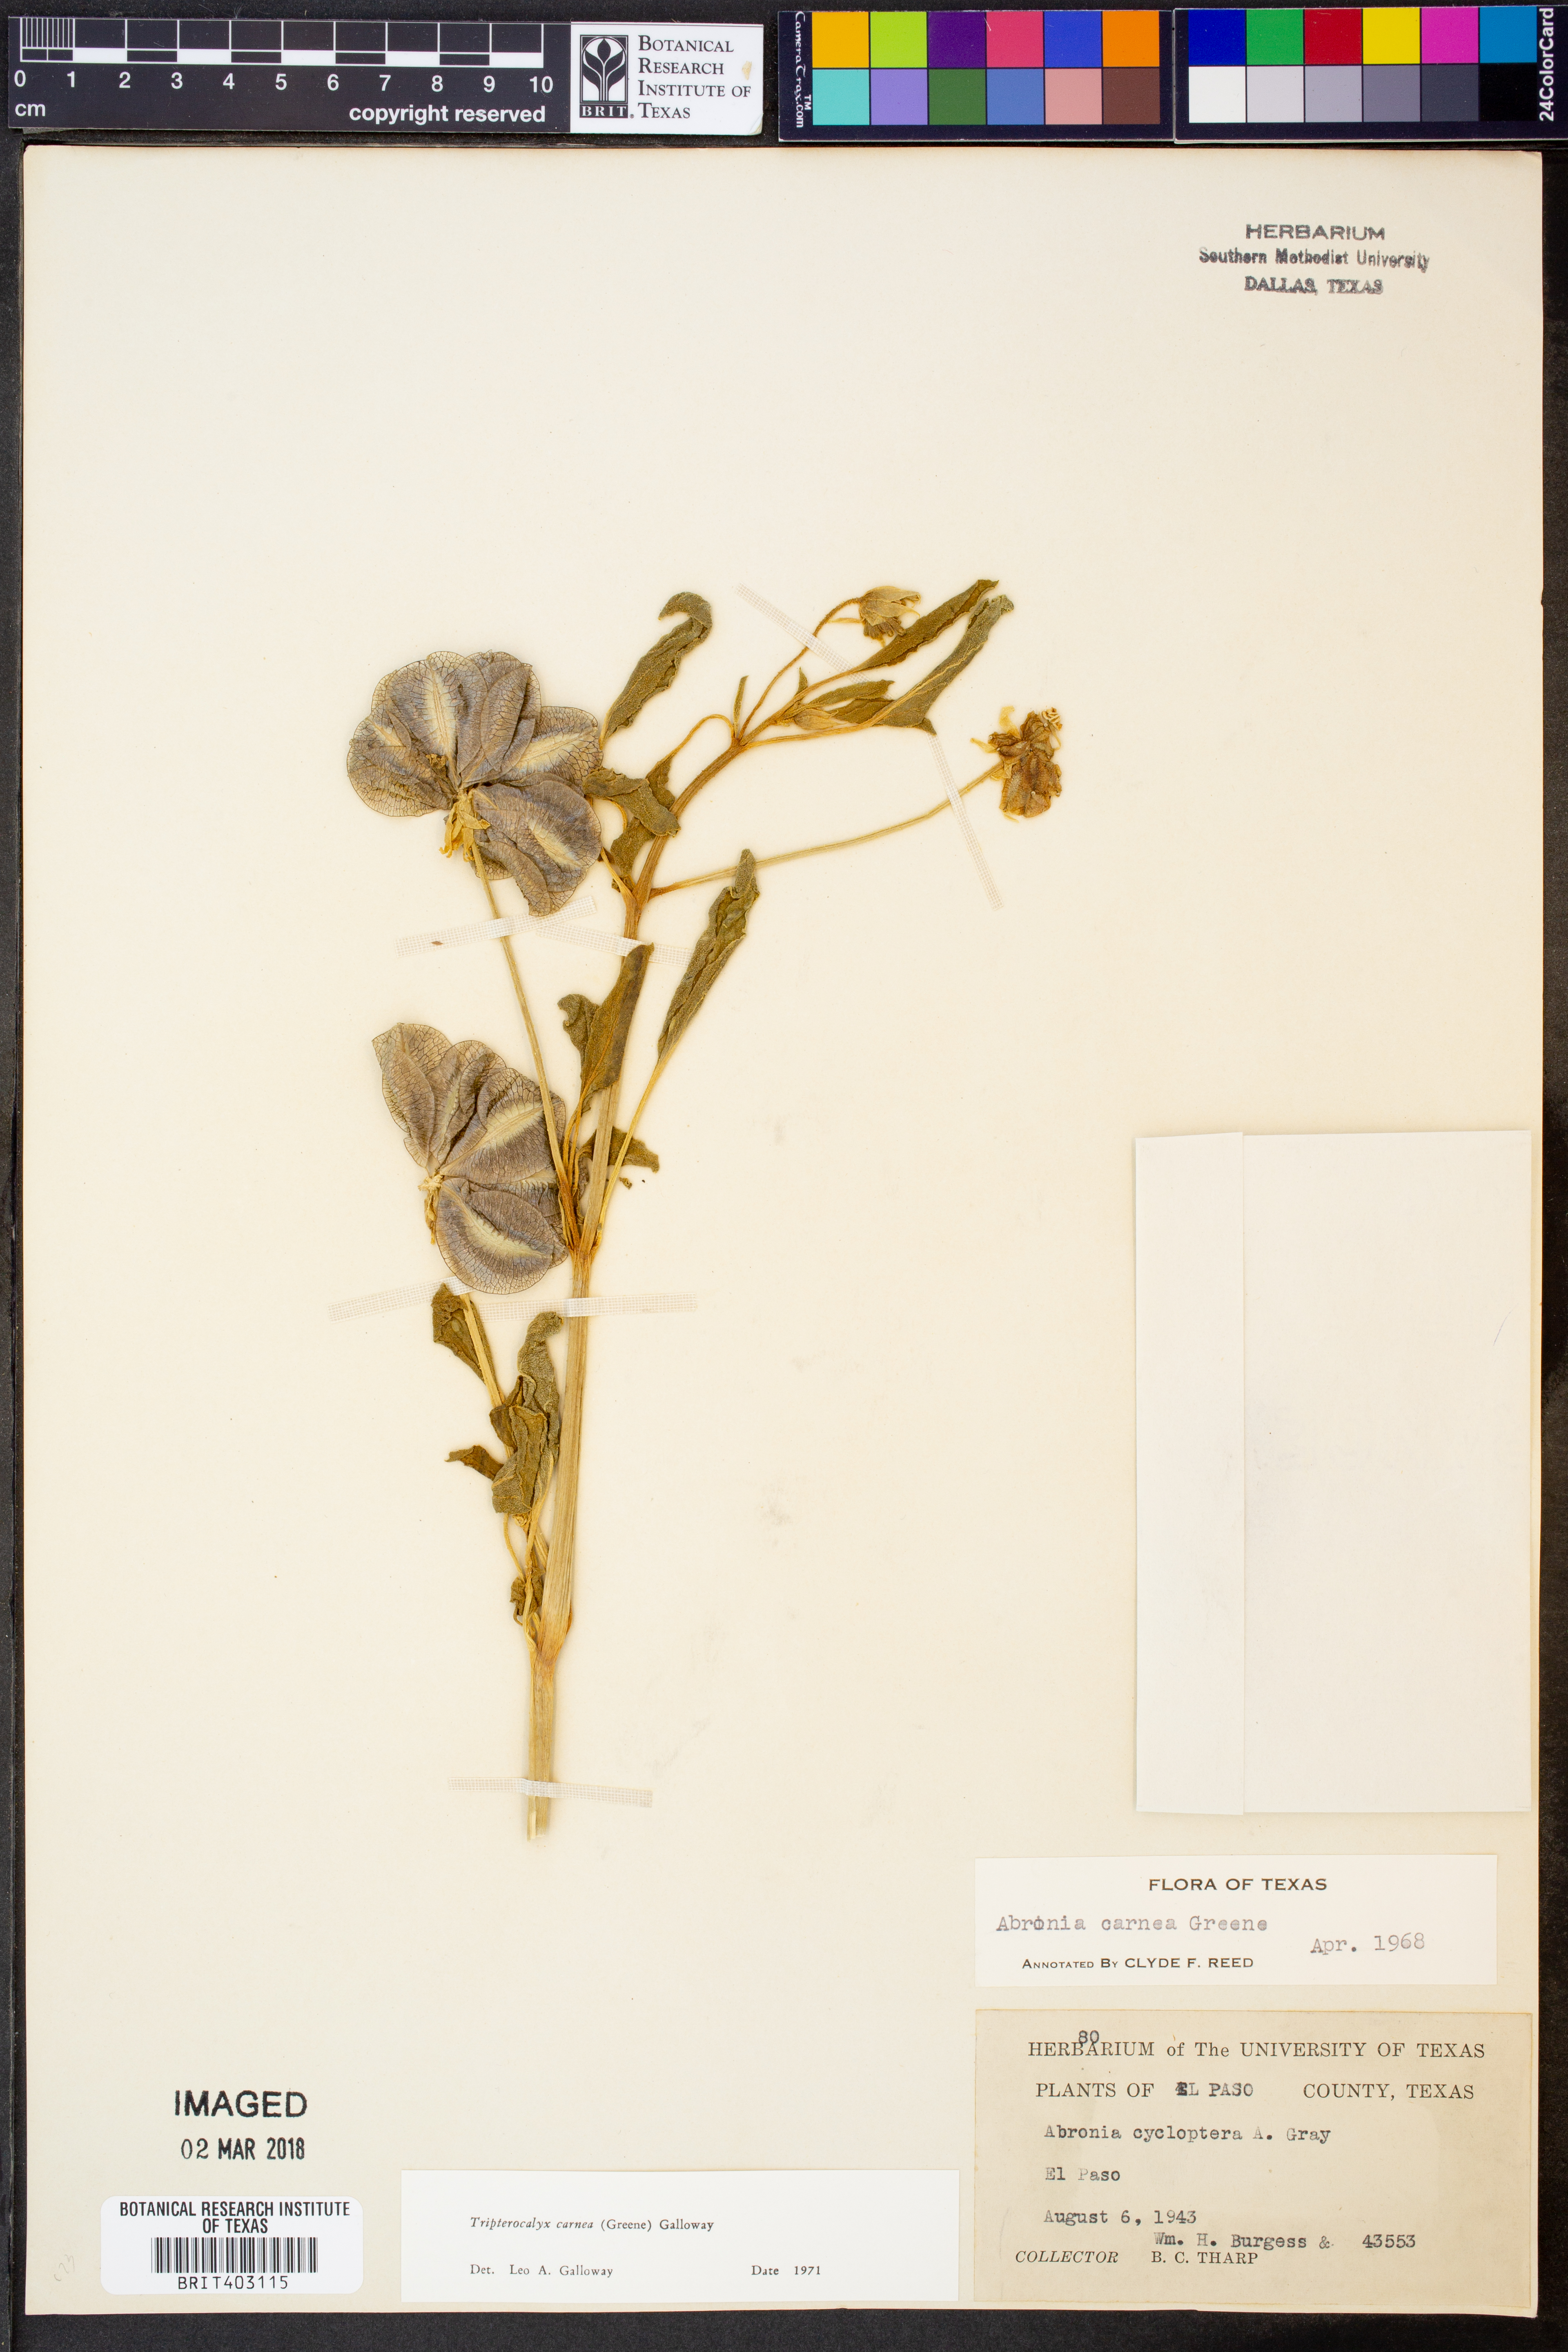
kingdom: Plantae
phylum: Tracheophyta
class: Magnoliopsida
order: Caryophyllales
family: Nyctaginaceae
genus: Tripterocalyx
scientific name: Tripterocalyx carneus
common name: Winged sandpuffs
